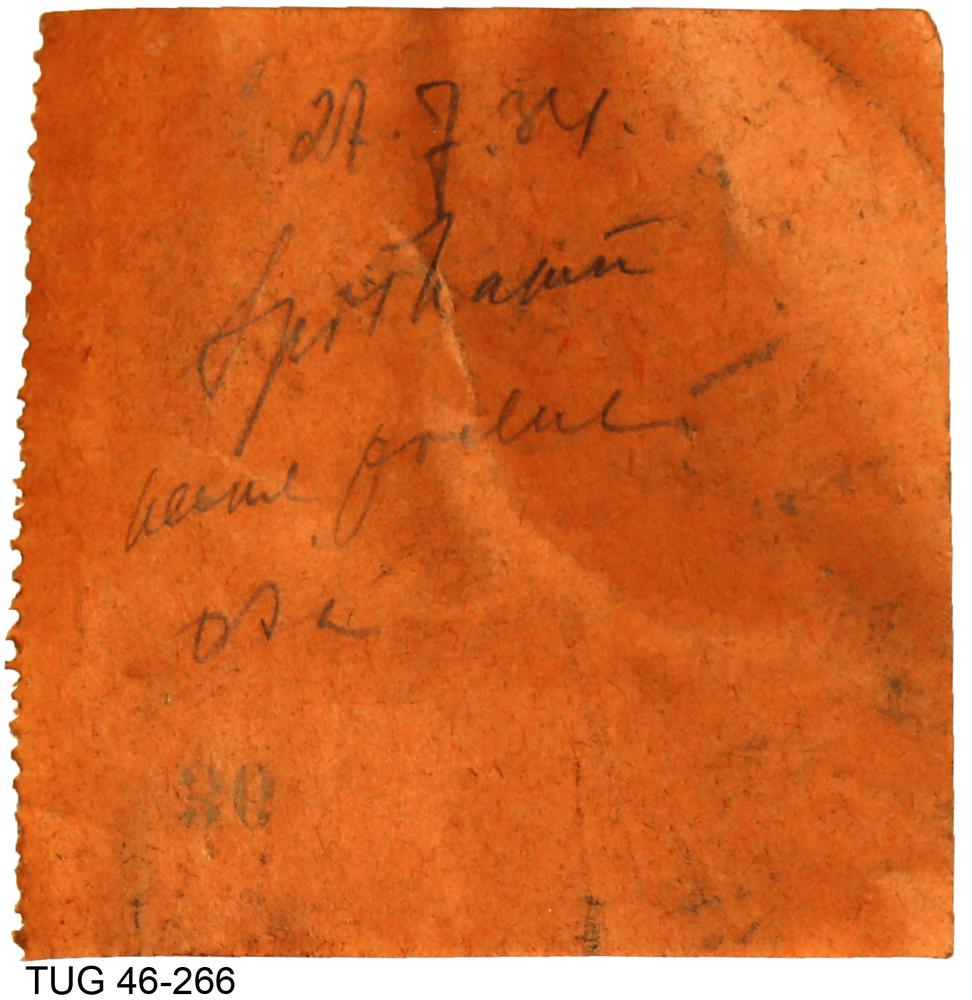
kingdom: Animalia
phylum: Mollusca
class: Cephalopoda
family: Trocholitidae
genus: Discoceras
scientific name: Discoceras
